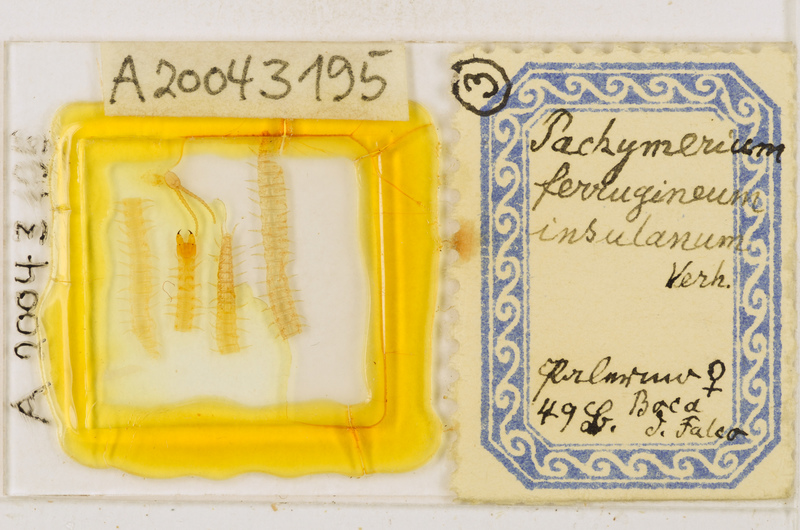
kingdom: Animalia
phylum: Arthropoda
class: Chilopoda
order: Geophilomorpha
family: Geophilidae
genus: Pachymerium
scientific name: Pachymerium ferrugineum
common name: Centipede
